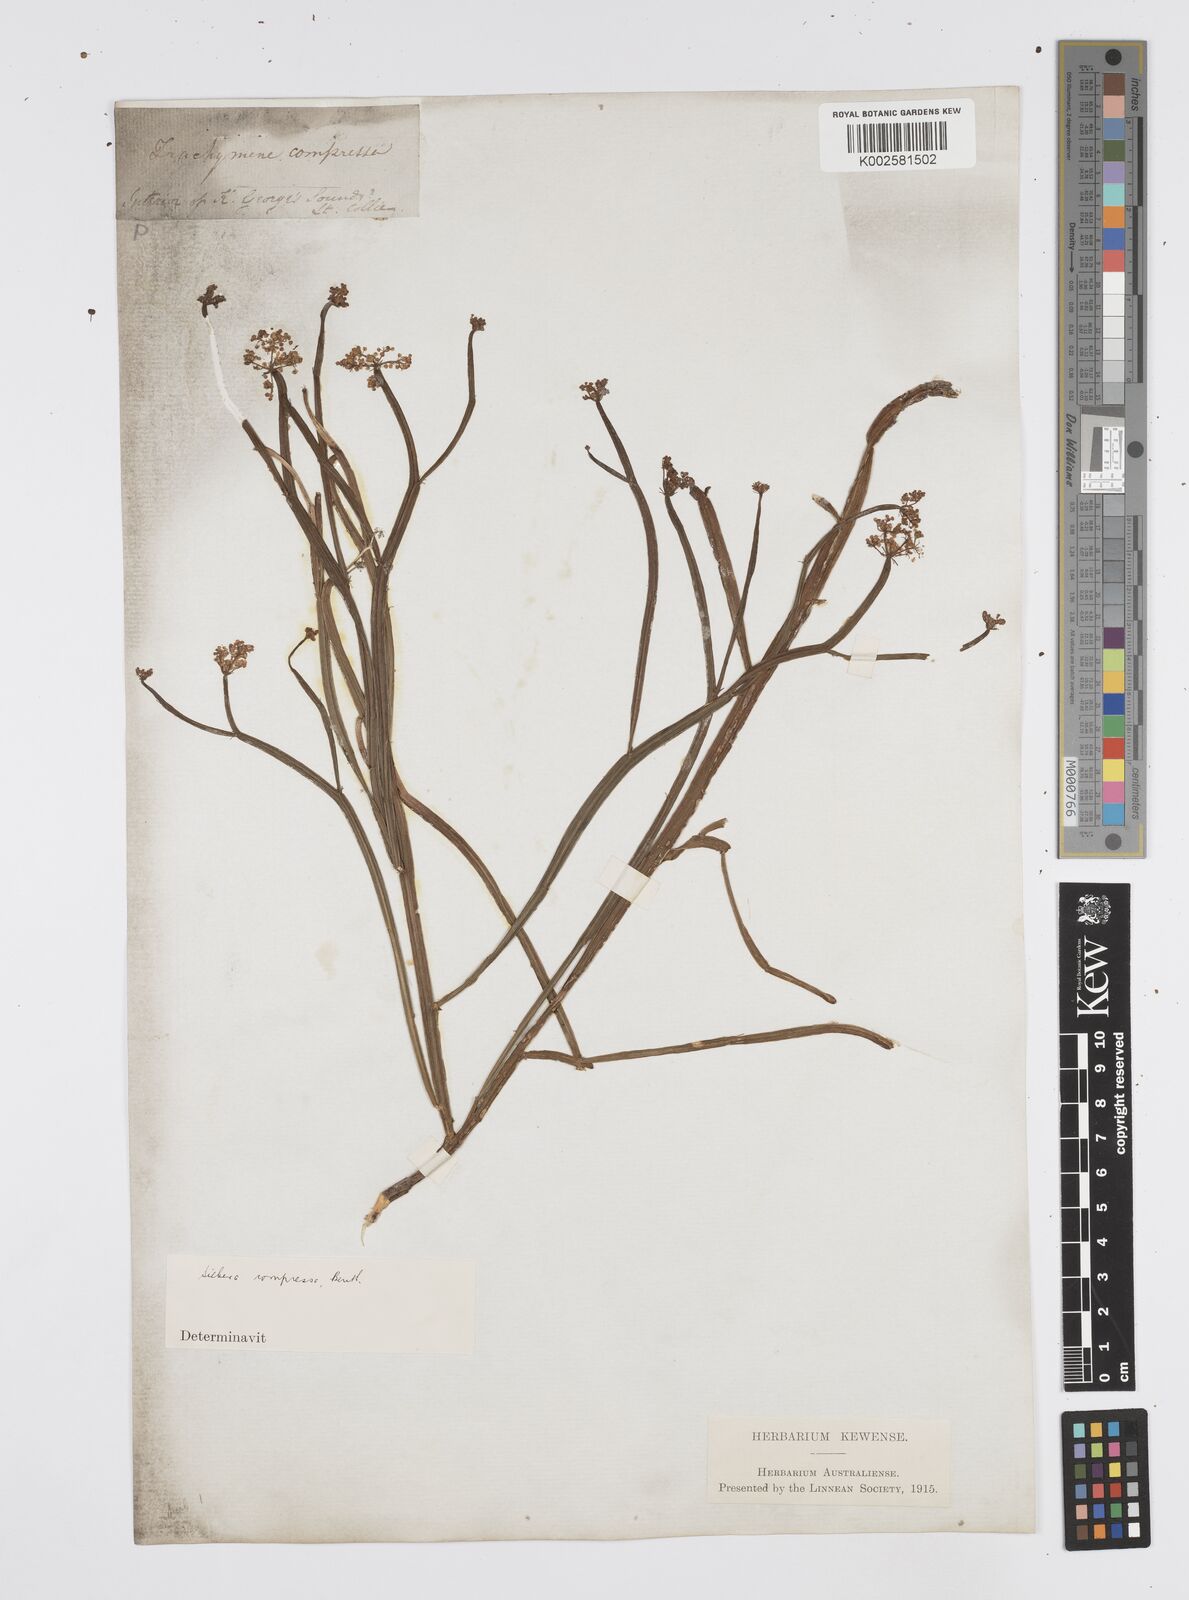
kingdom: Plantae
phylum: Tracheophyta
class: Magnoliopsida
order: Apiales
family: Apiaceae
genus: Centella
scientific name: Centella
